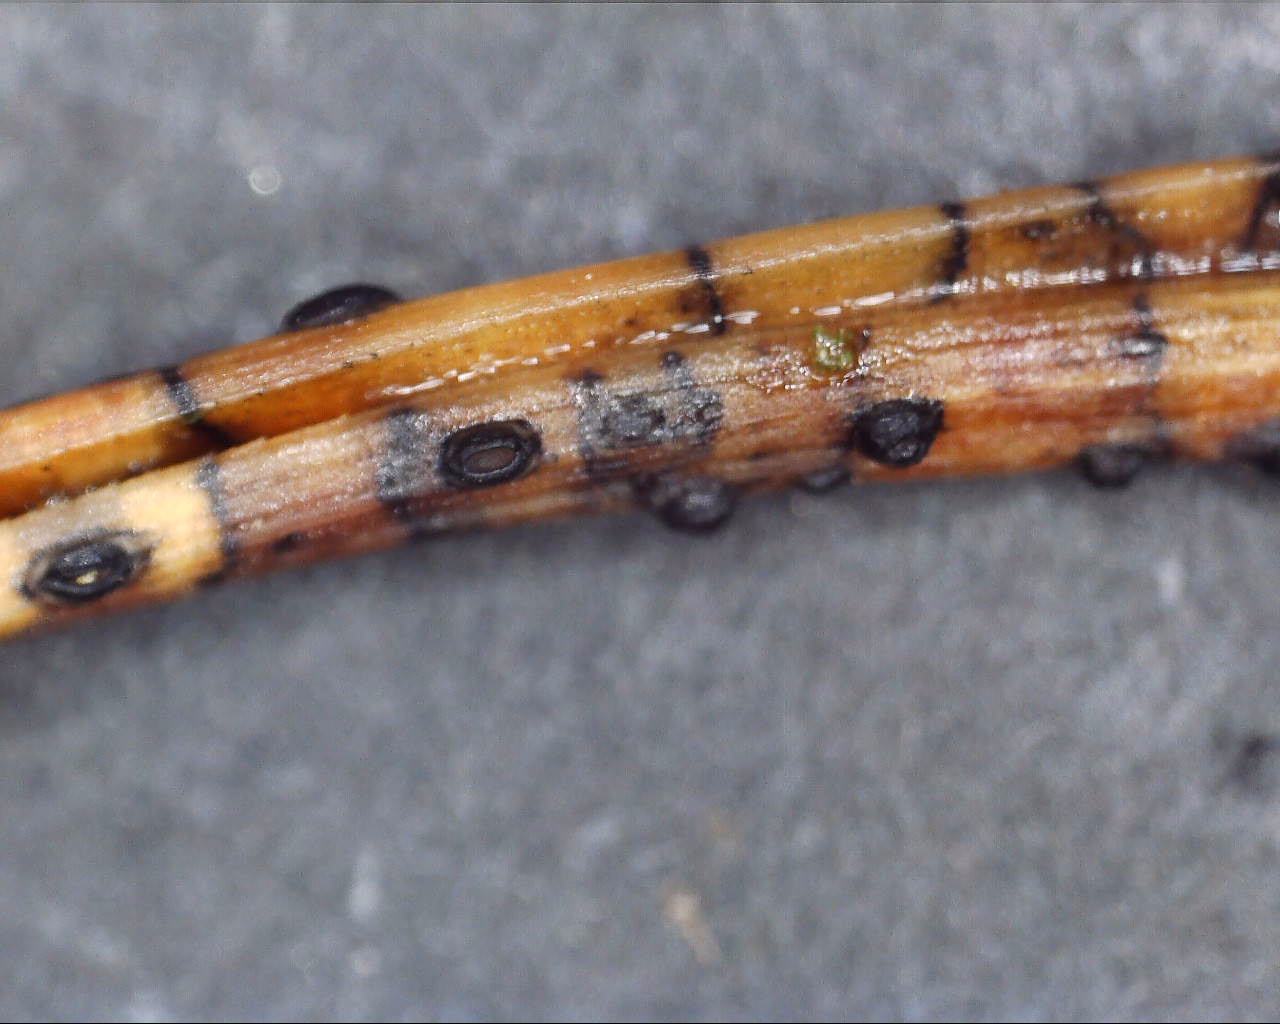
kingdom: Fungi
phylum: Ascomycota
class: Leotiomycetes
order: Rhytismatales
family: Rhytismataceae
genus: Lophodermium
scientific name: Lophodermium pinastri
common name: fyrre-fureplet
